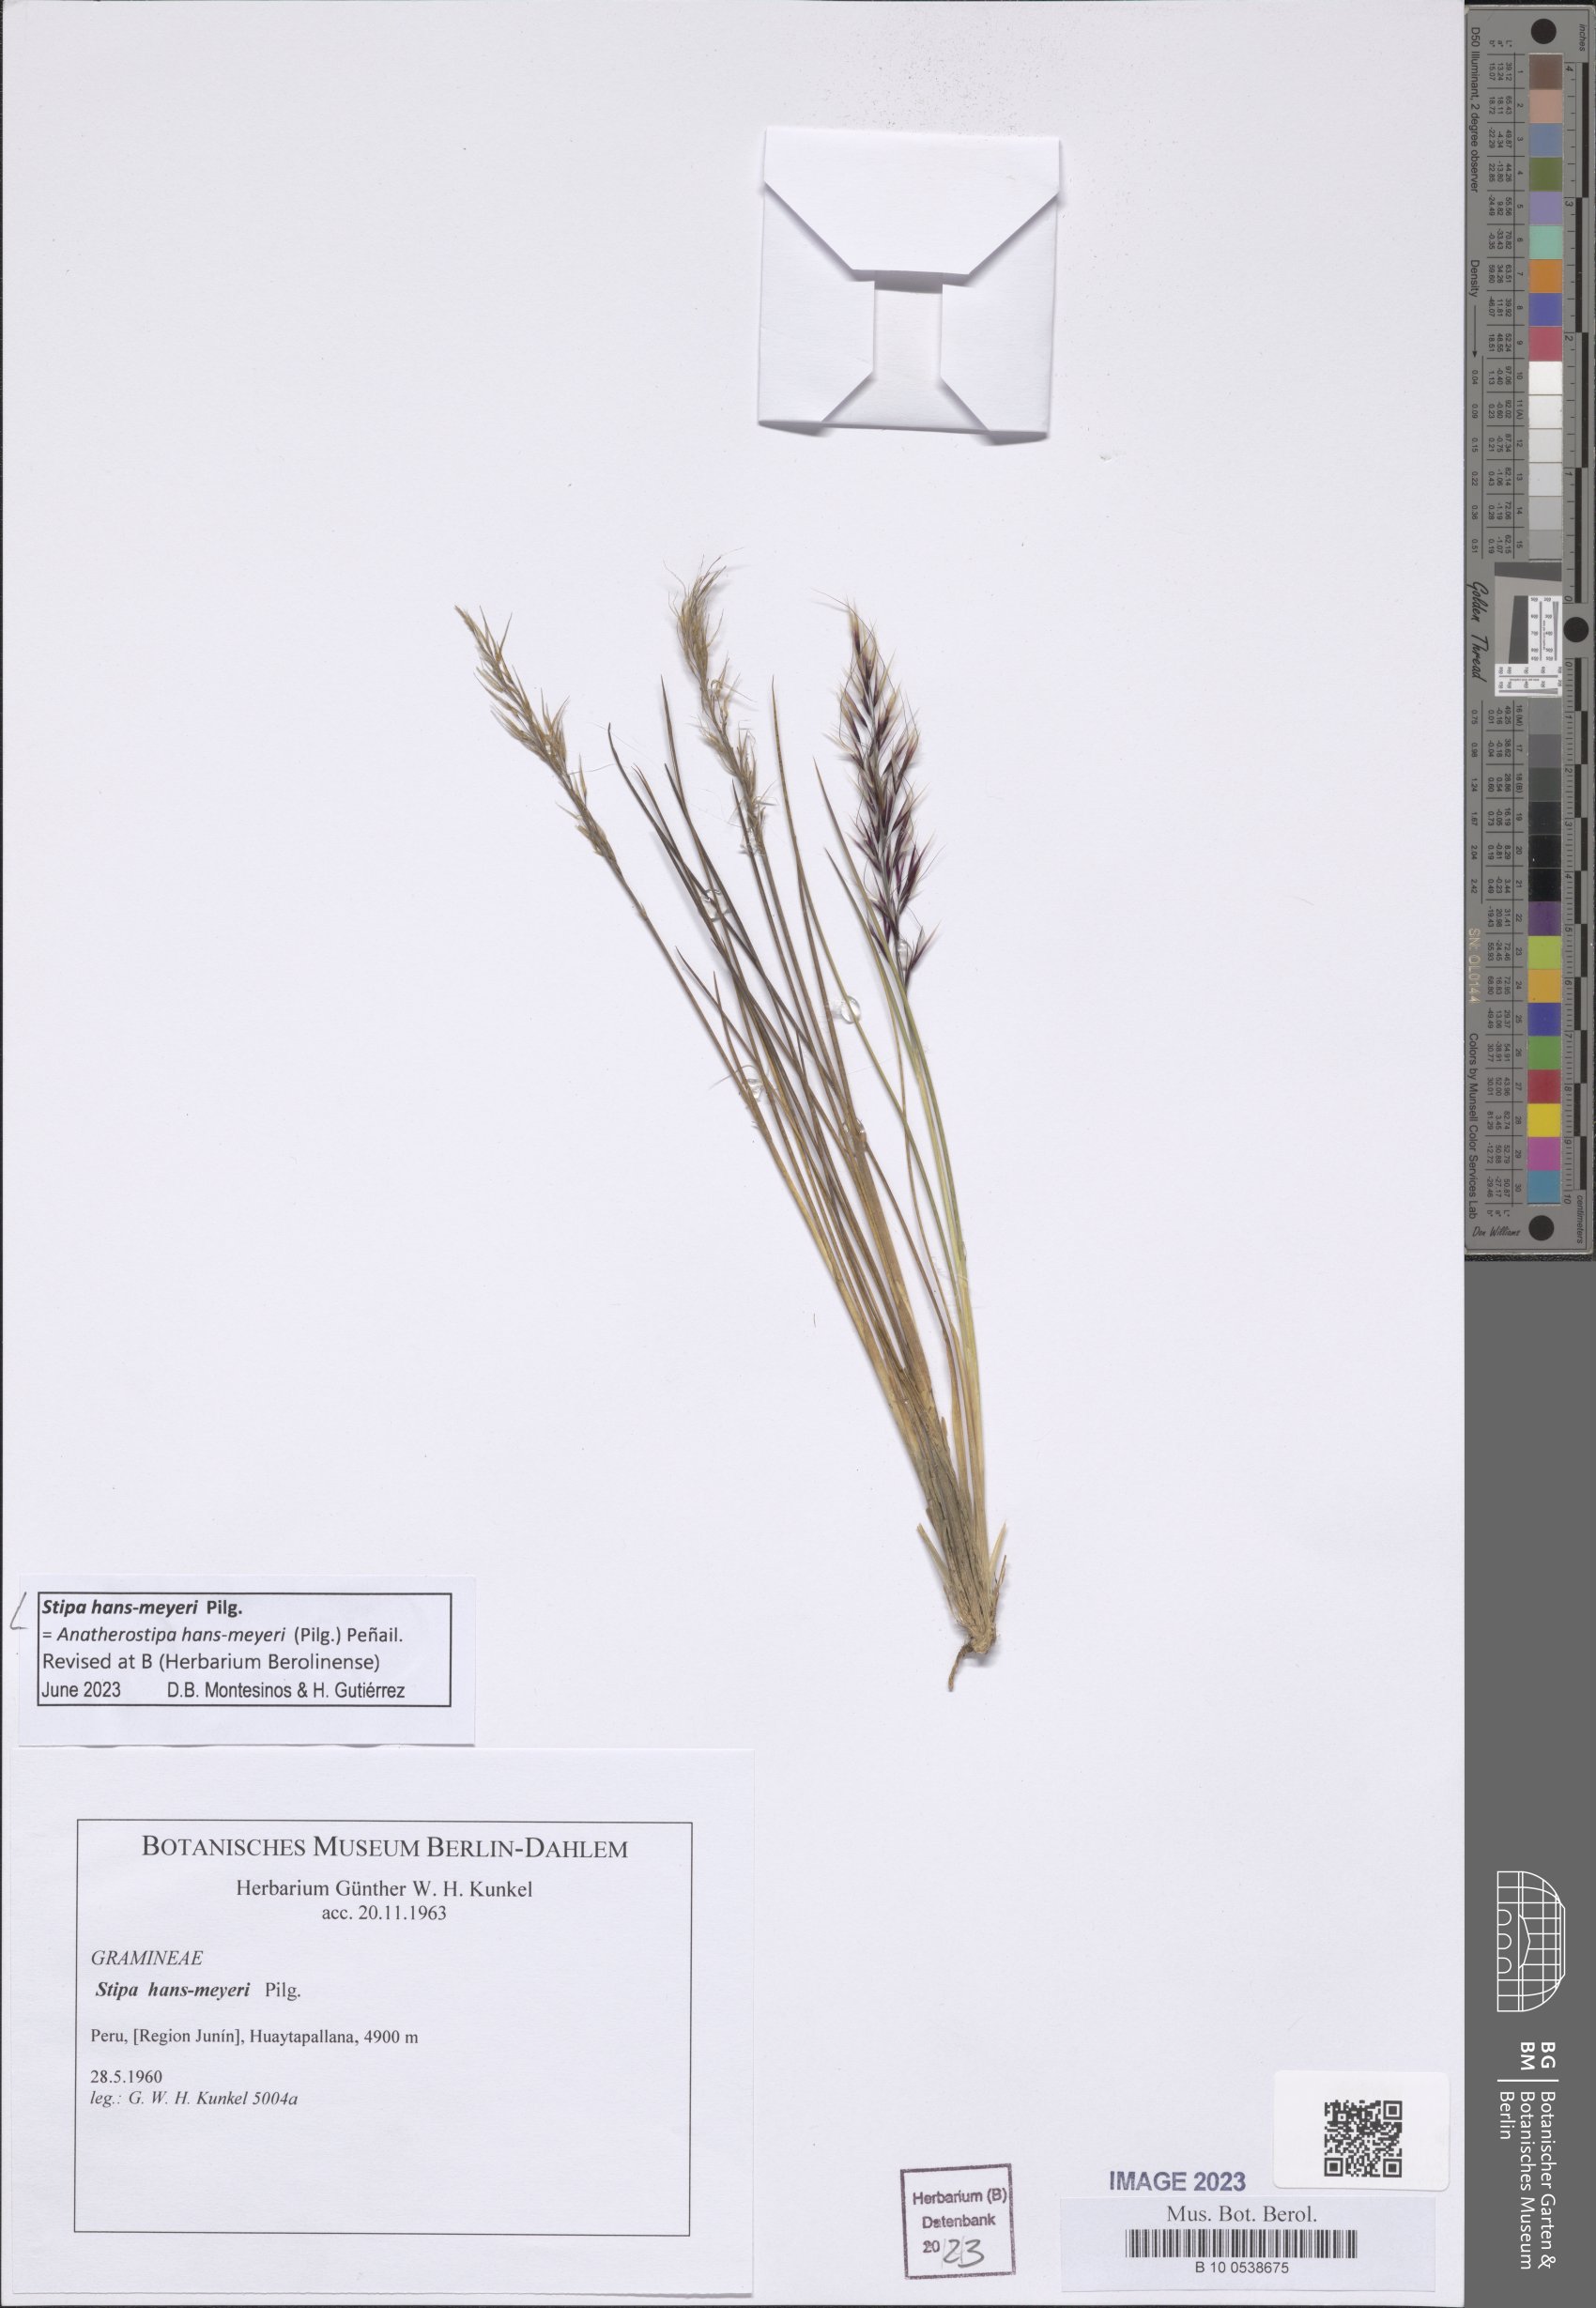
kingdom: Plantae
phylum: Tracheophyta
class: Liliopsida
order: Poales
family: Poaceae
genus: Stipa
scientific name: Stipa hans-meyeri
